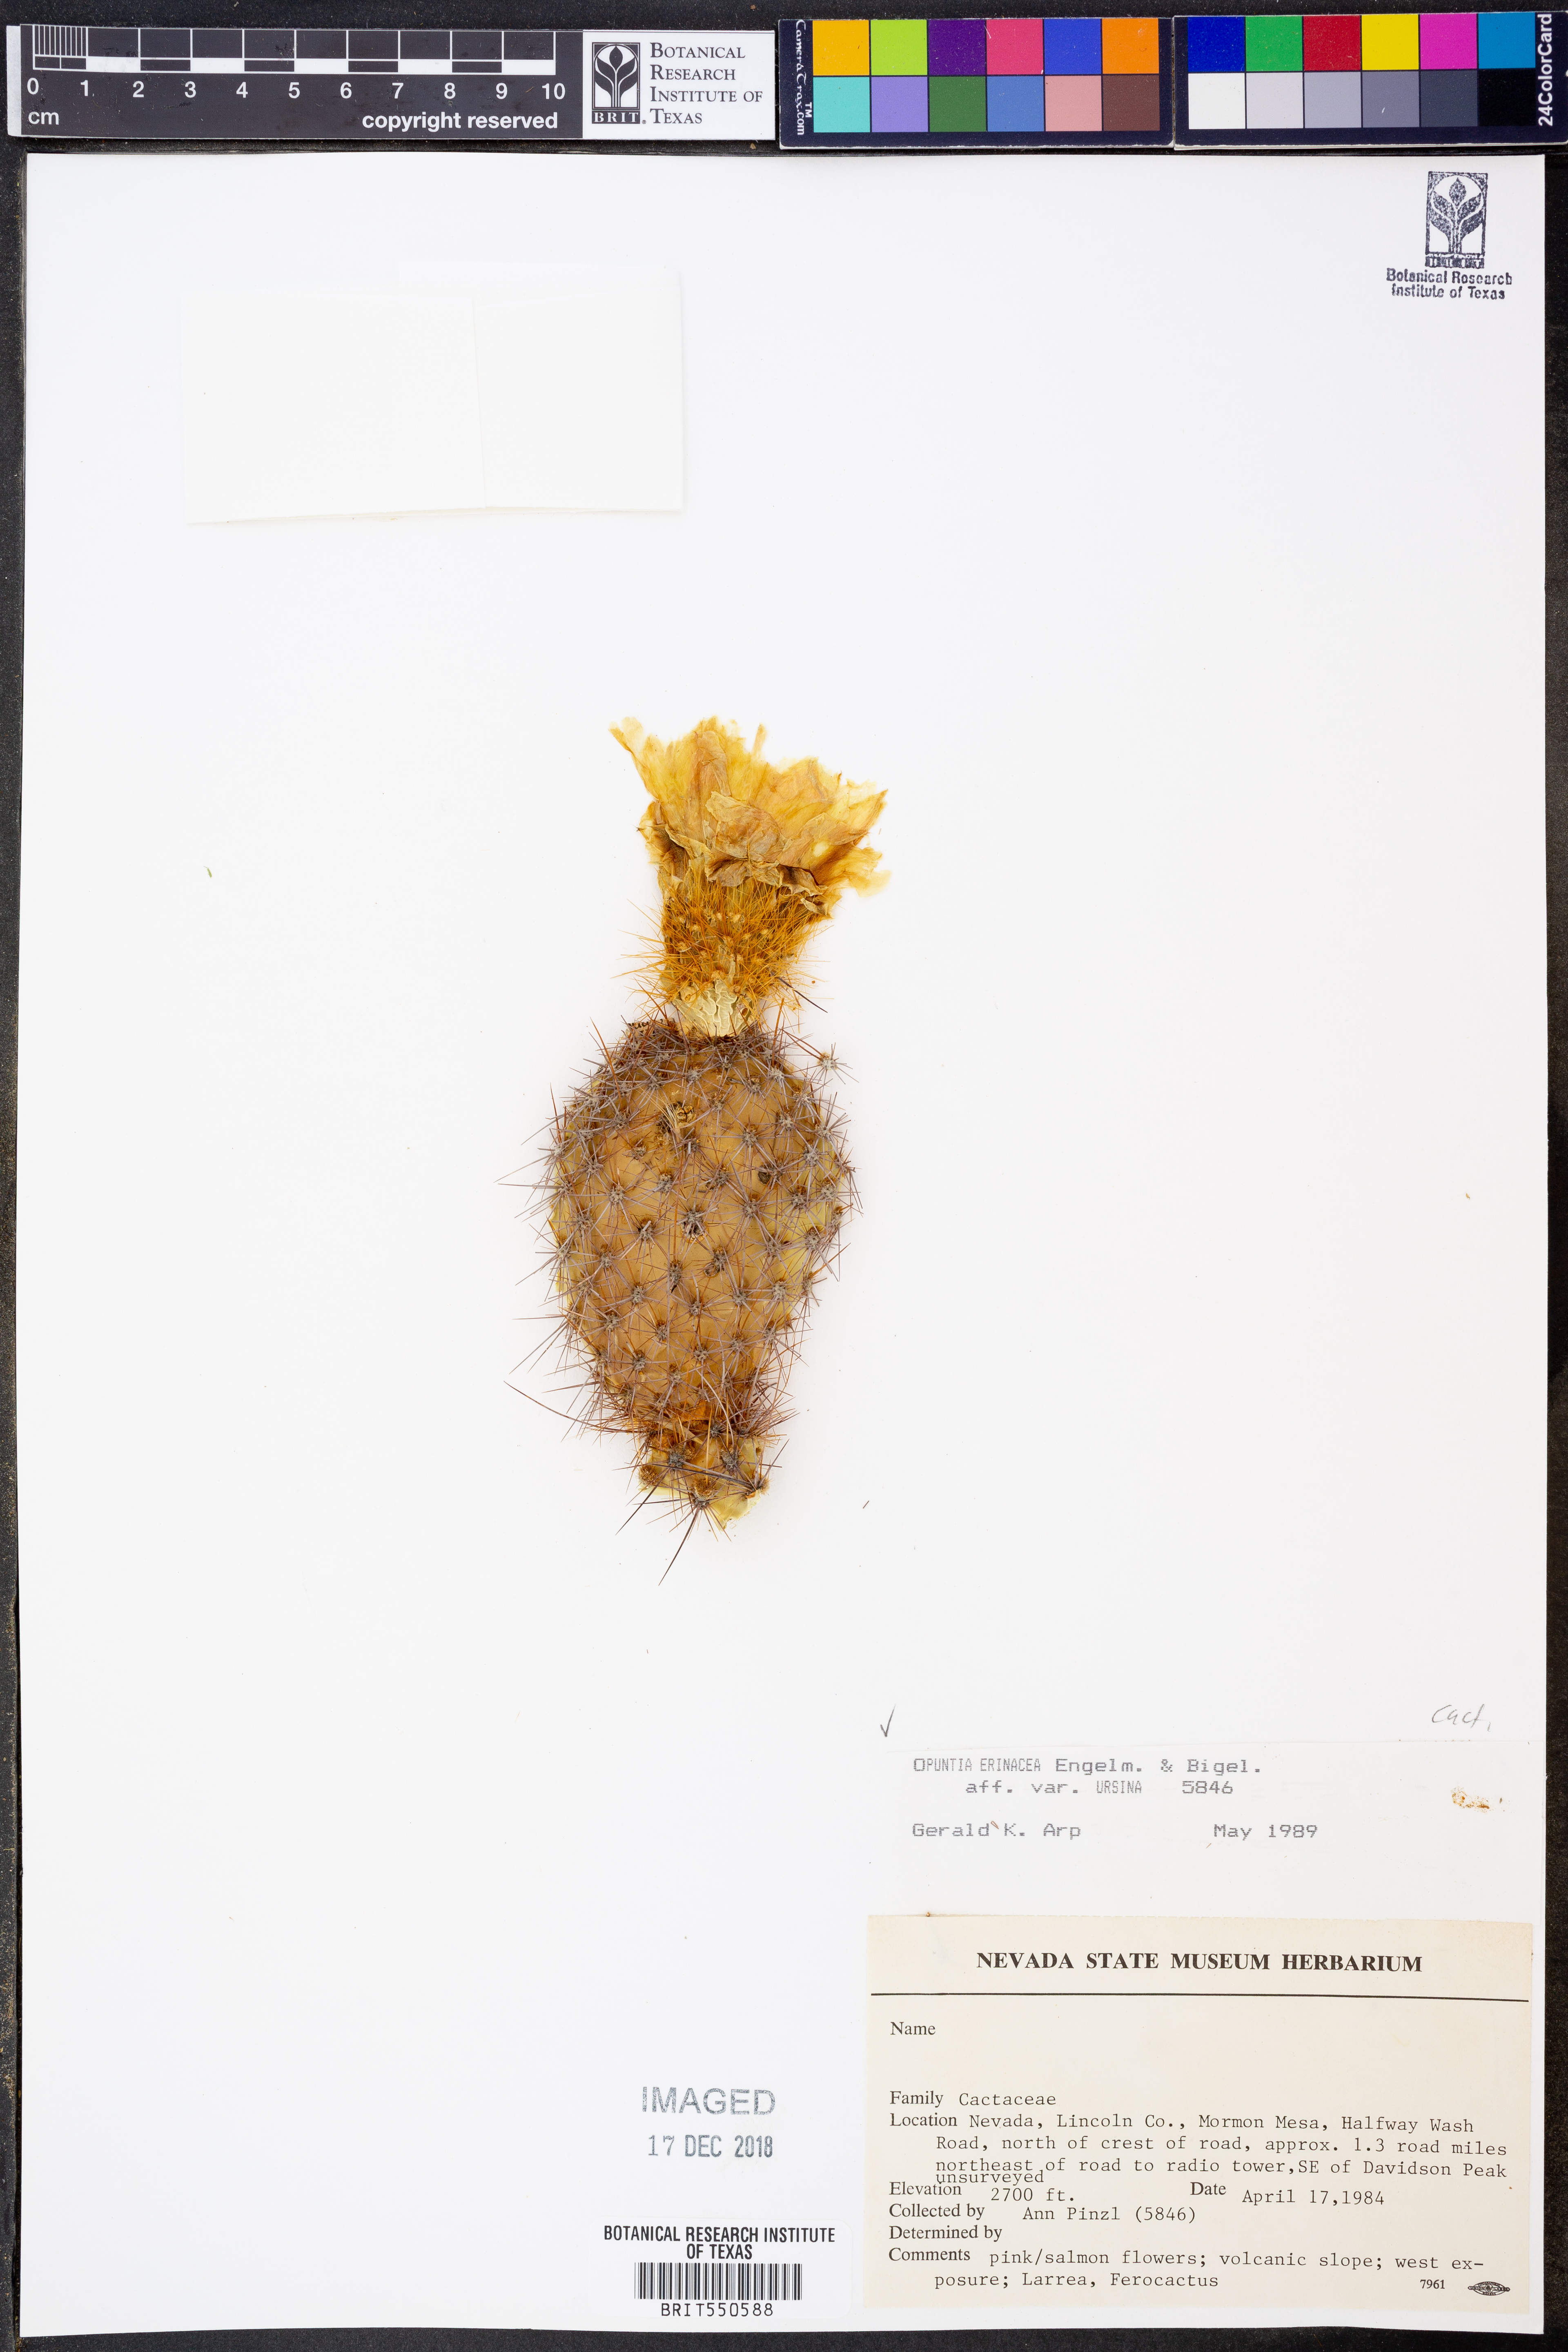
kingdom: Plantae
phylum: Tracheophyta
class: Magnoliopsida
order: Caryophyllales
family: Cactaceae
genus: Opuntia
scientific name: Opuntia polyacantha
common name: Plains prickly-pear
